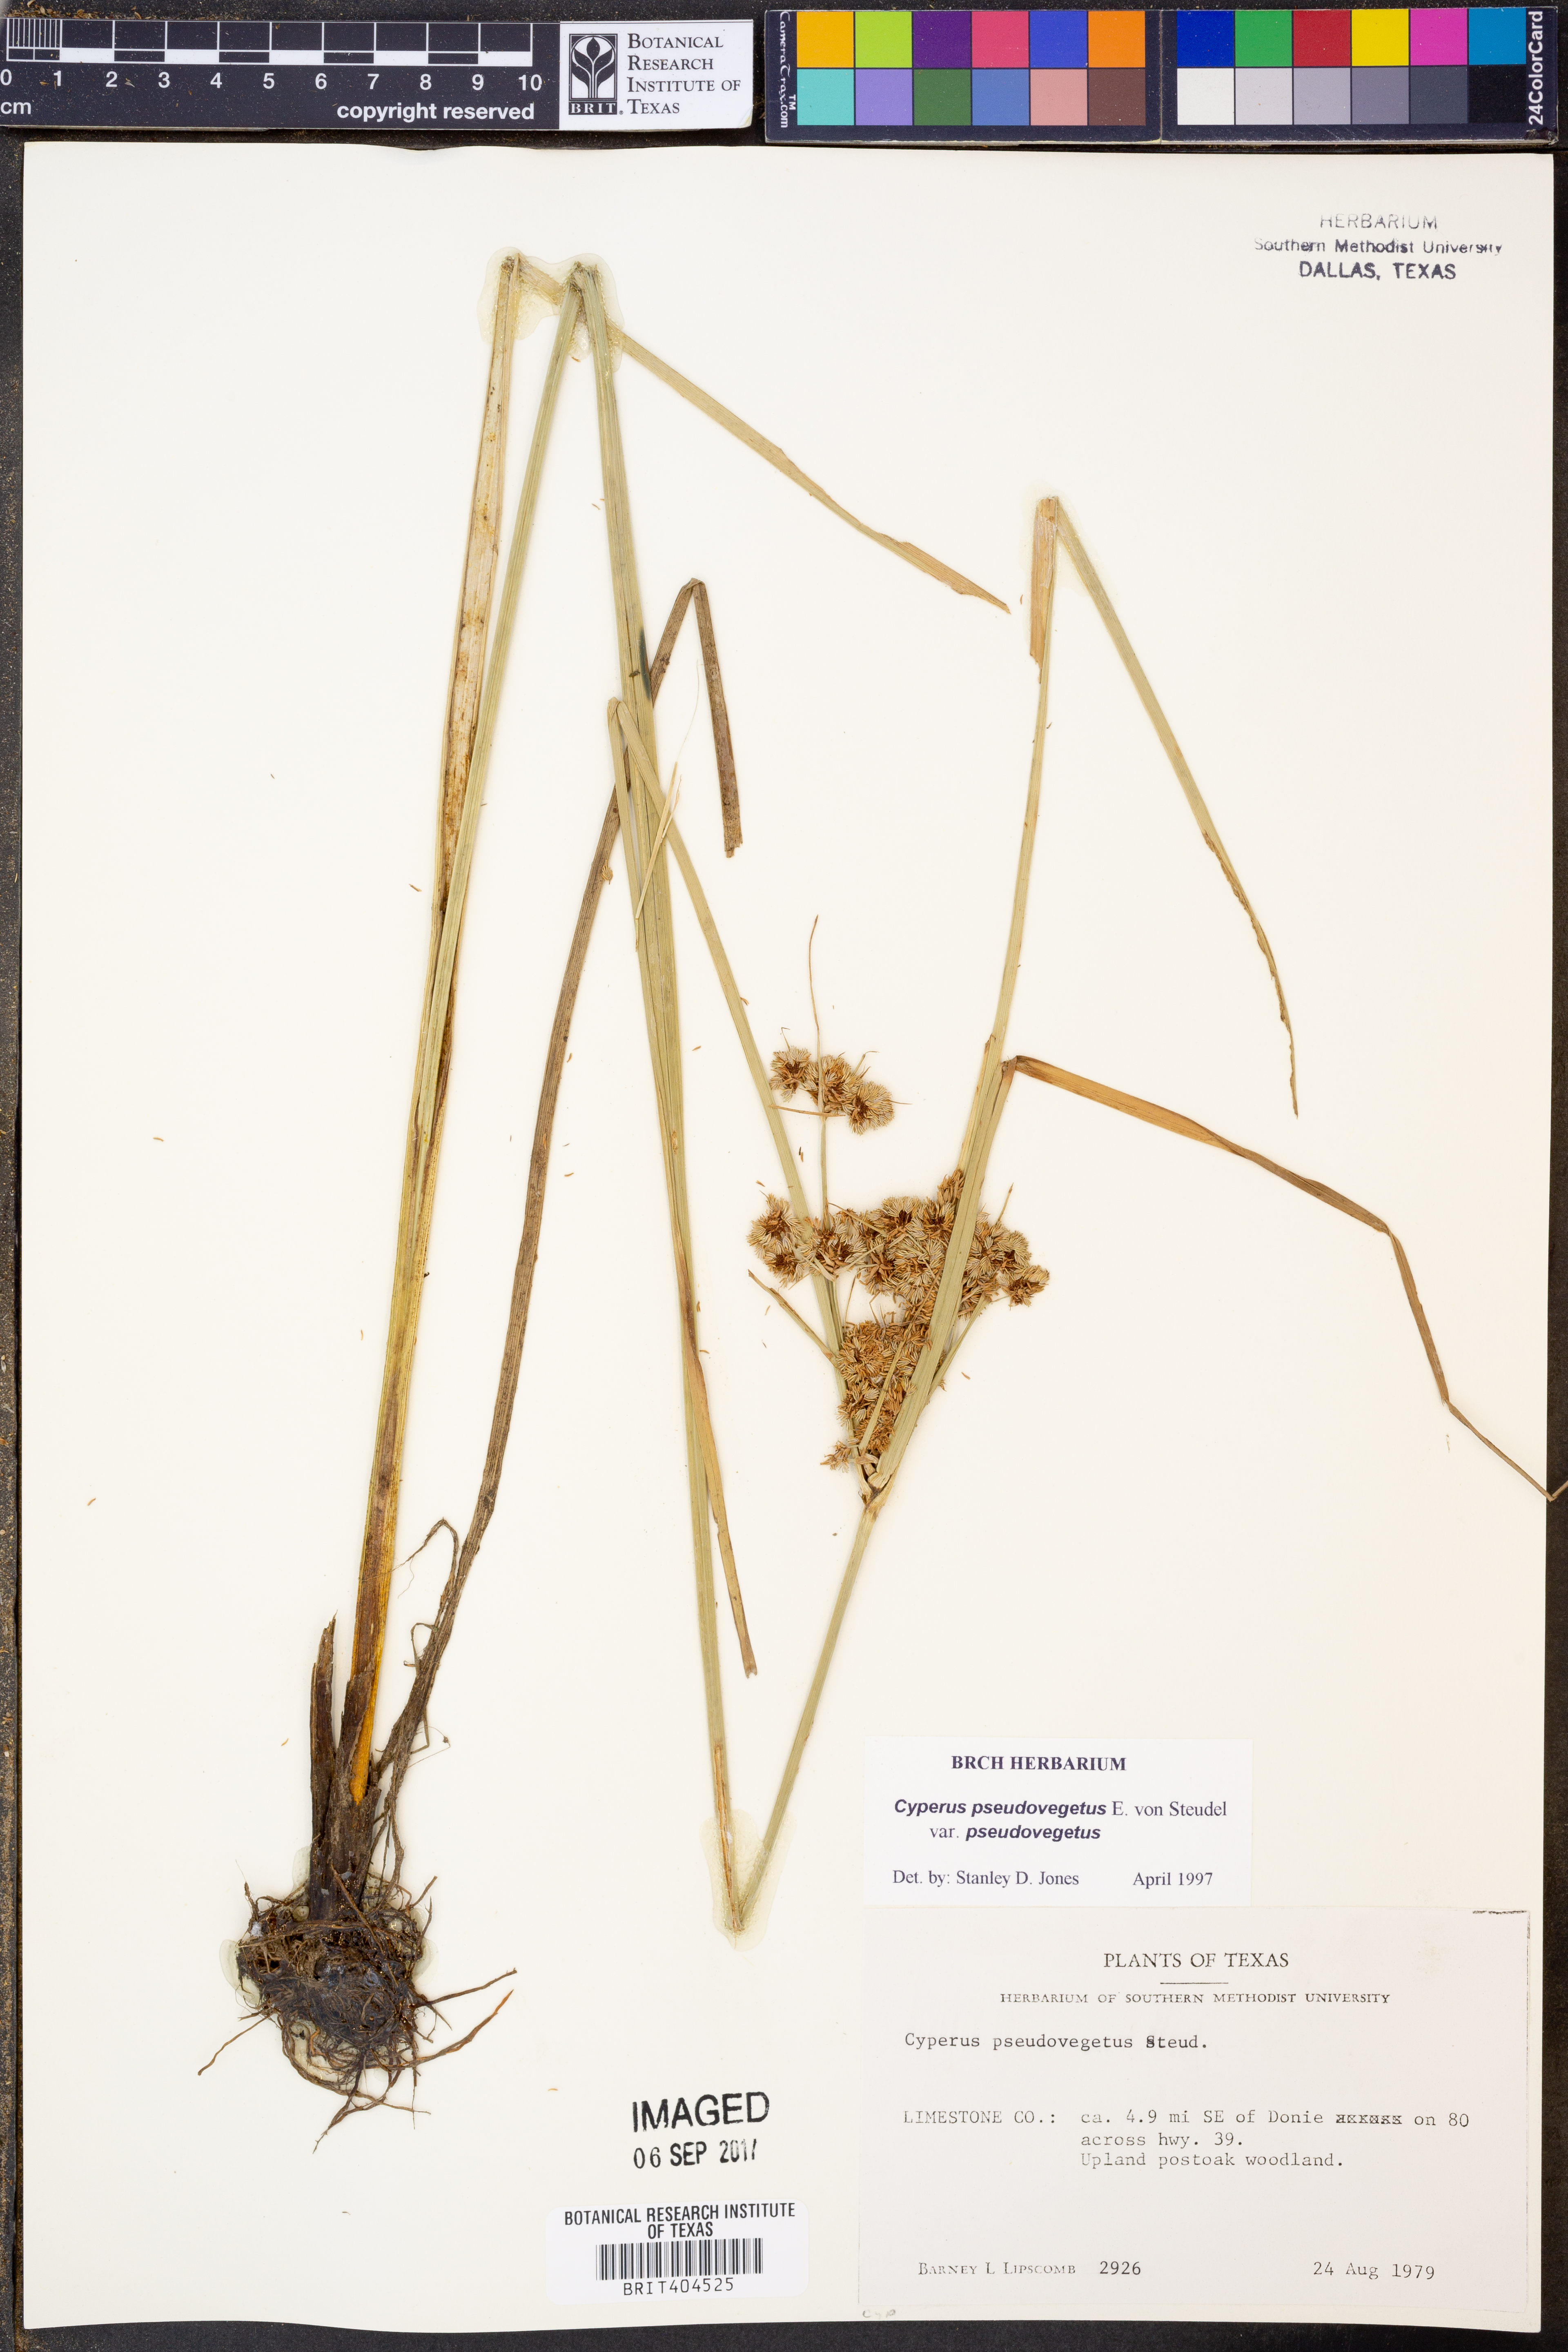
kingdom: Plantae
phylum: Tracheophyta
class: Liliopsida
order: Poales
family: Cyperaceae
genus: Cyperus
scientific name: Cyperus pseudovegetus
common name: Marsh flat sedge
